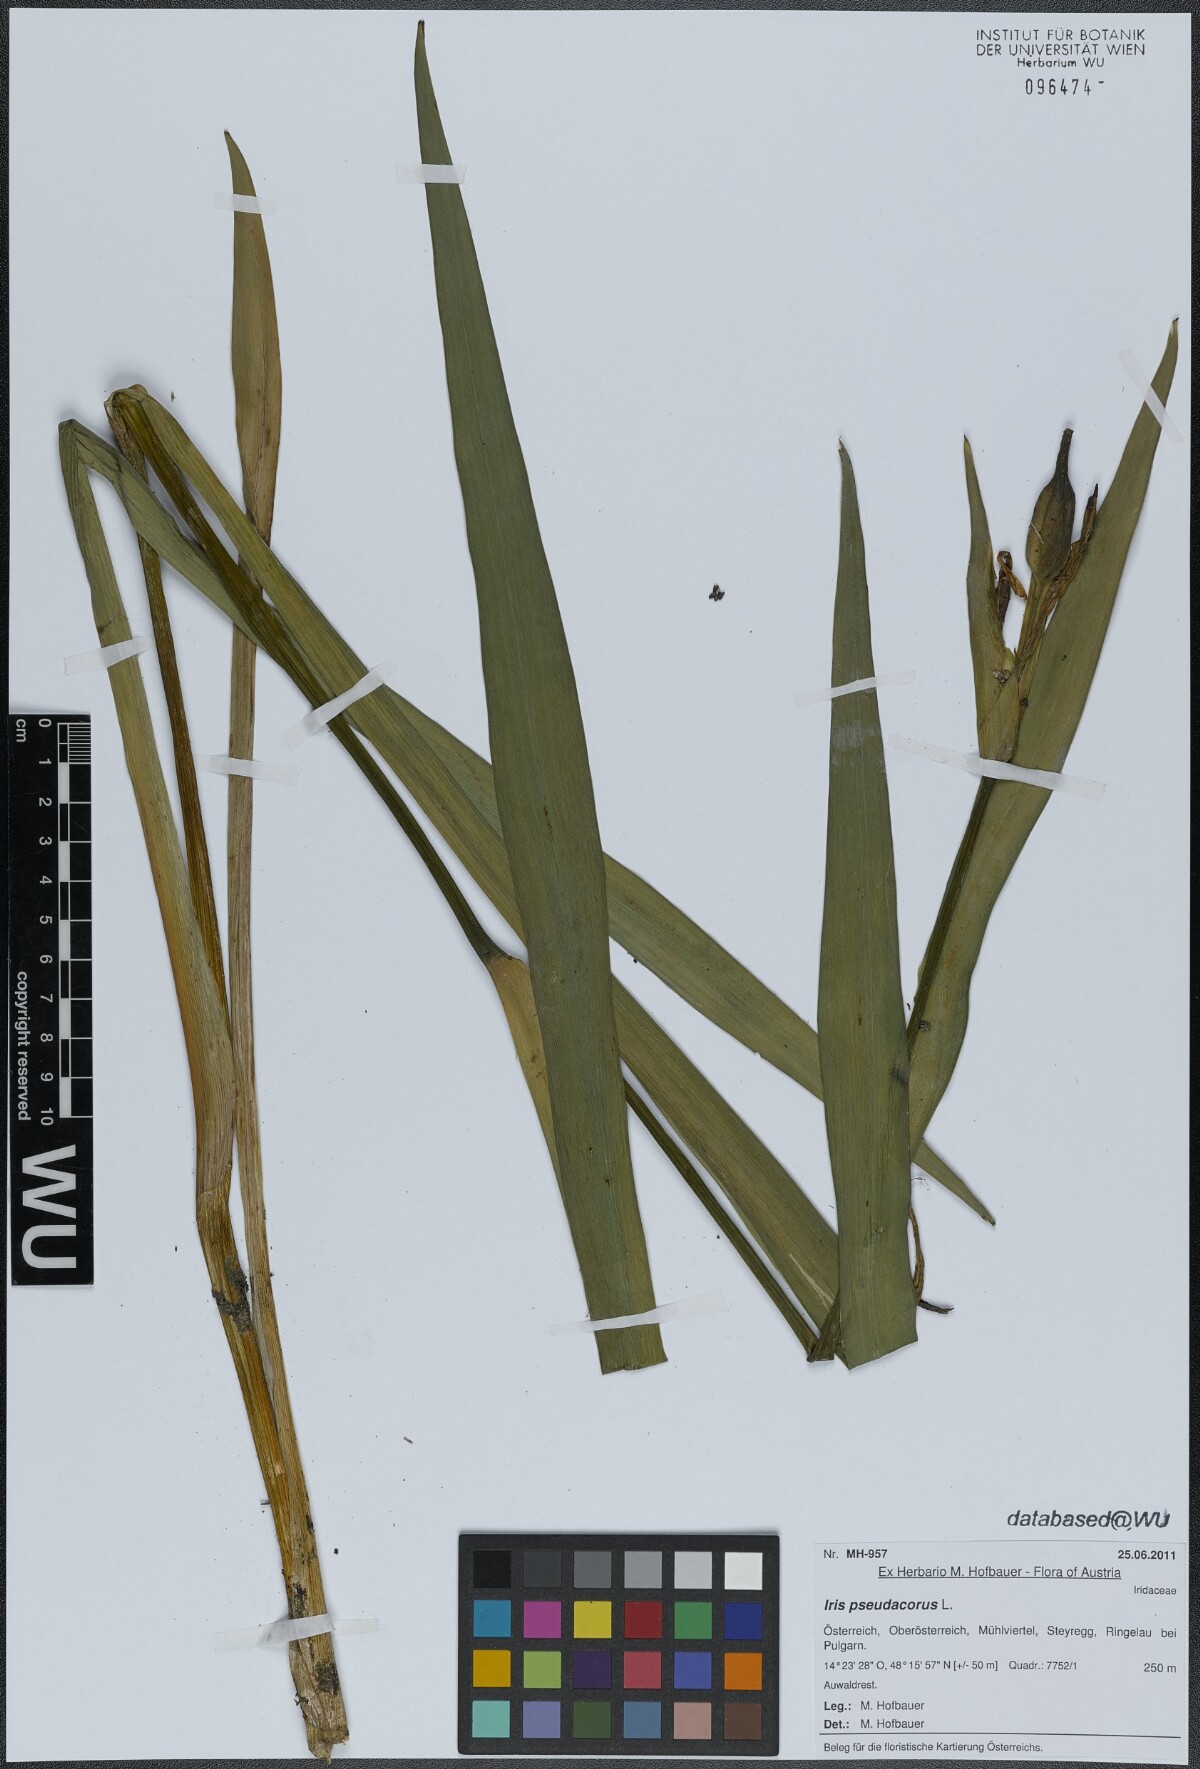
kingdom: Plantae
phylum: Tracheophyta
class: Liliopsida
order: Asparagales
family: Iridaceae
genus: Iris
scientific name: Iris pseudacorus
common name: Yellow flag
